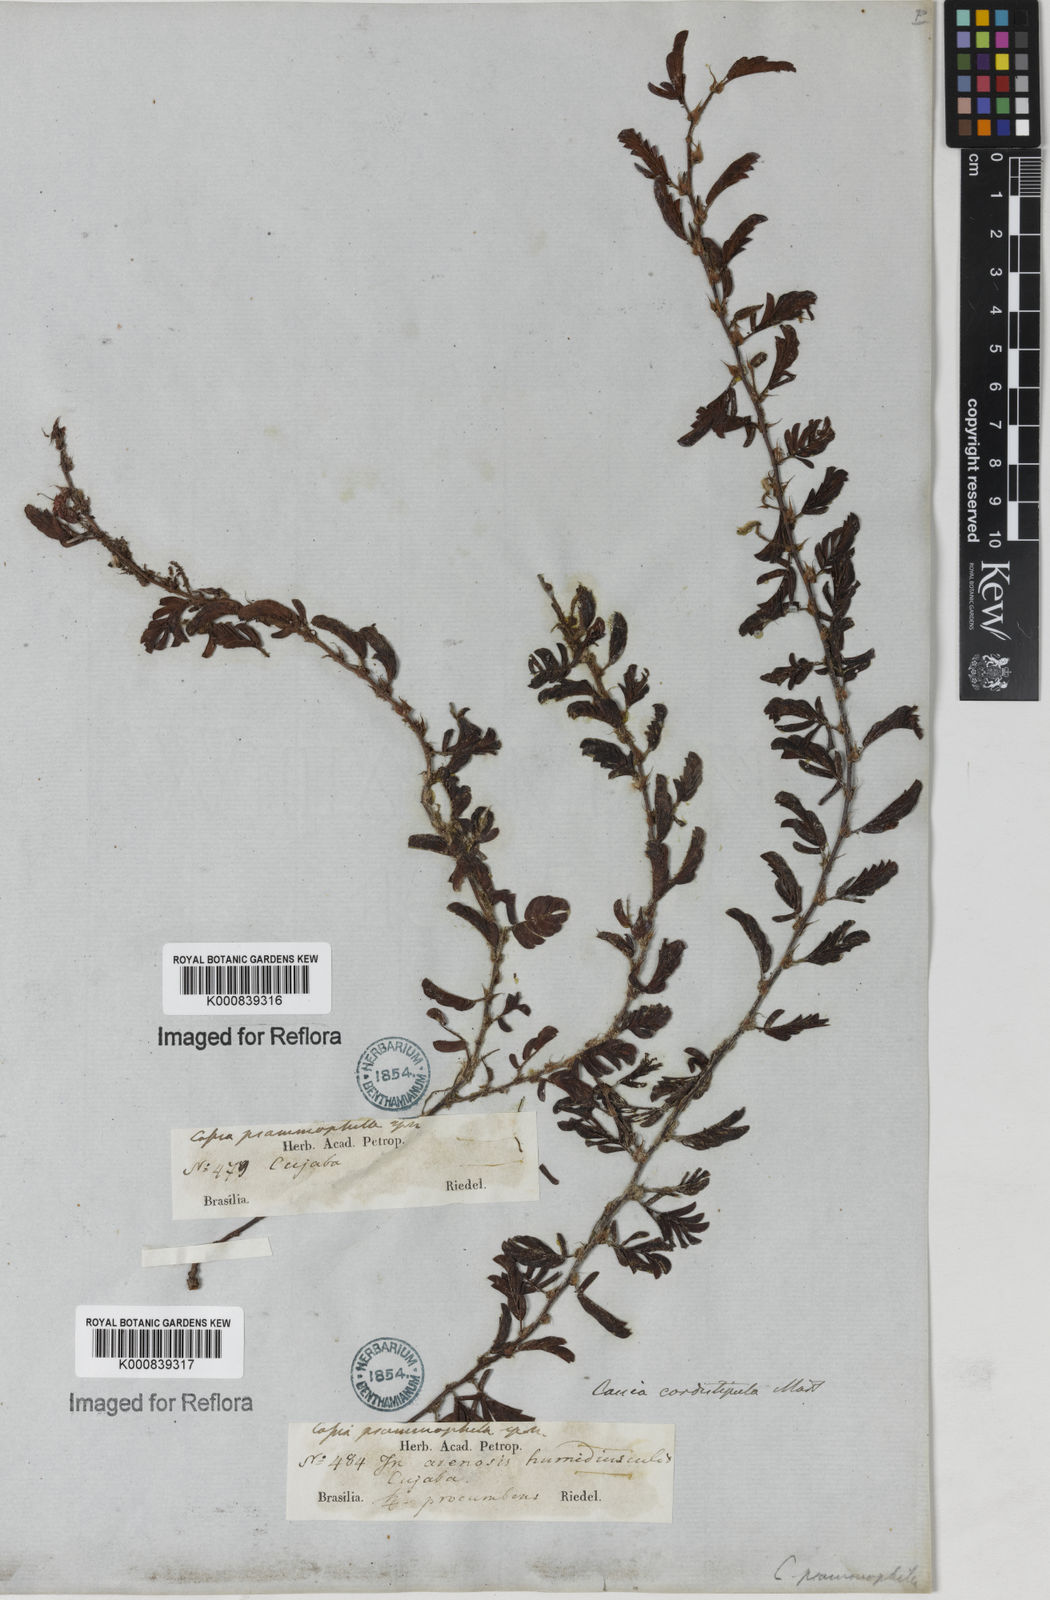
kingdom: Plantae
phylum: Tracheophyta
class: Magnoliopsida
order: Fabales
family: Fabaceae
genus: Chamaecrista
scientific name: Chamaecrista cordistipula
